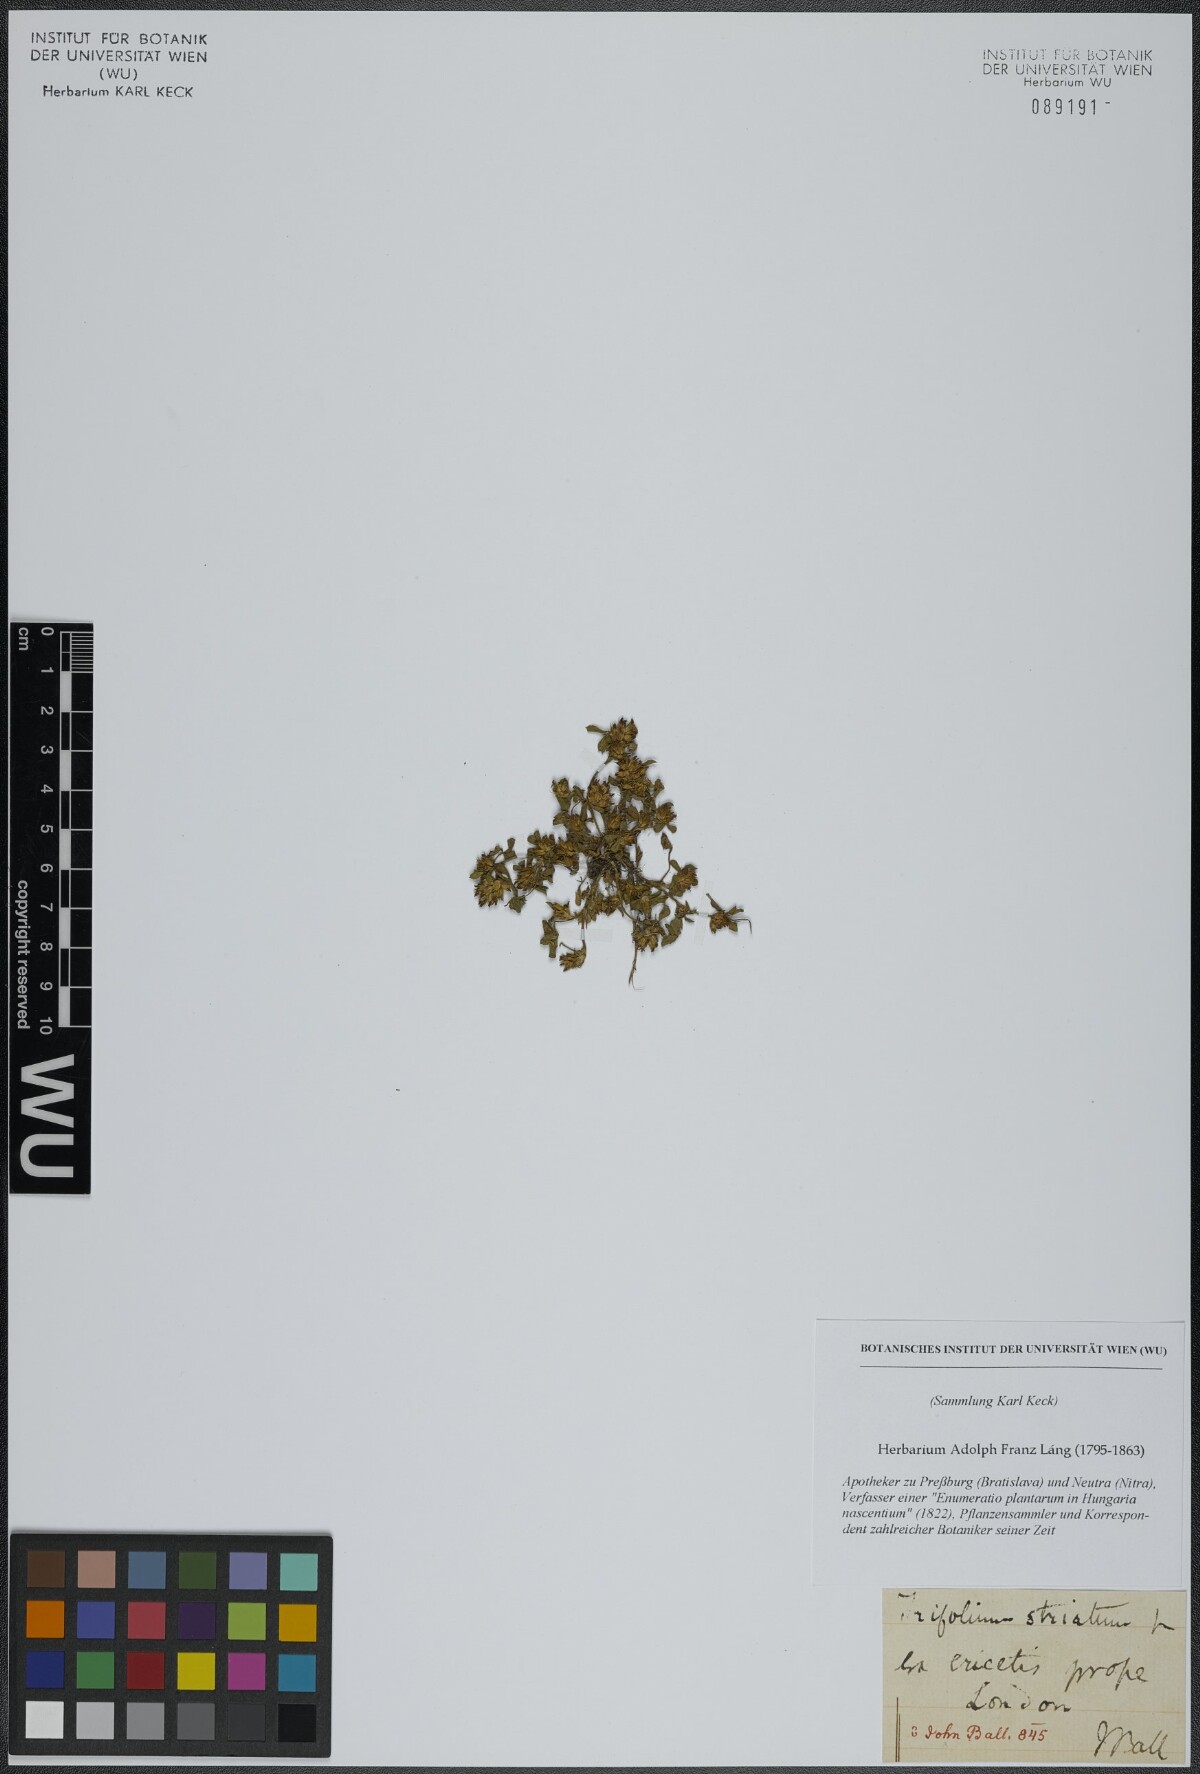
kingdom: Plantae
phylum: Tracheophyta
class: Magnoliopsida
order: Fabales
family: Fabaceae
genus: Trifolium
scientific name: Trifolium striatum
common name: Knotted clover
